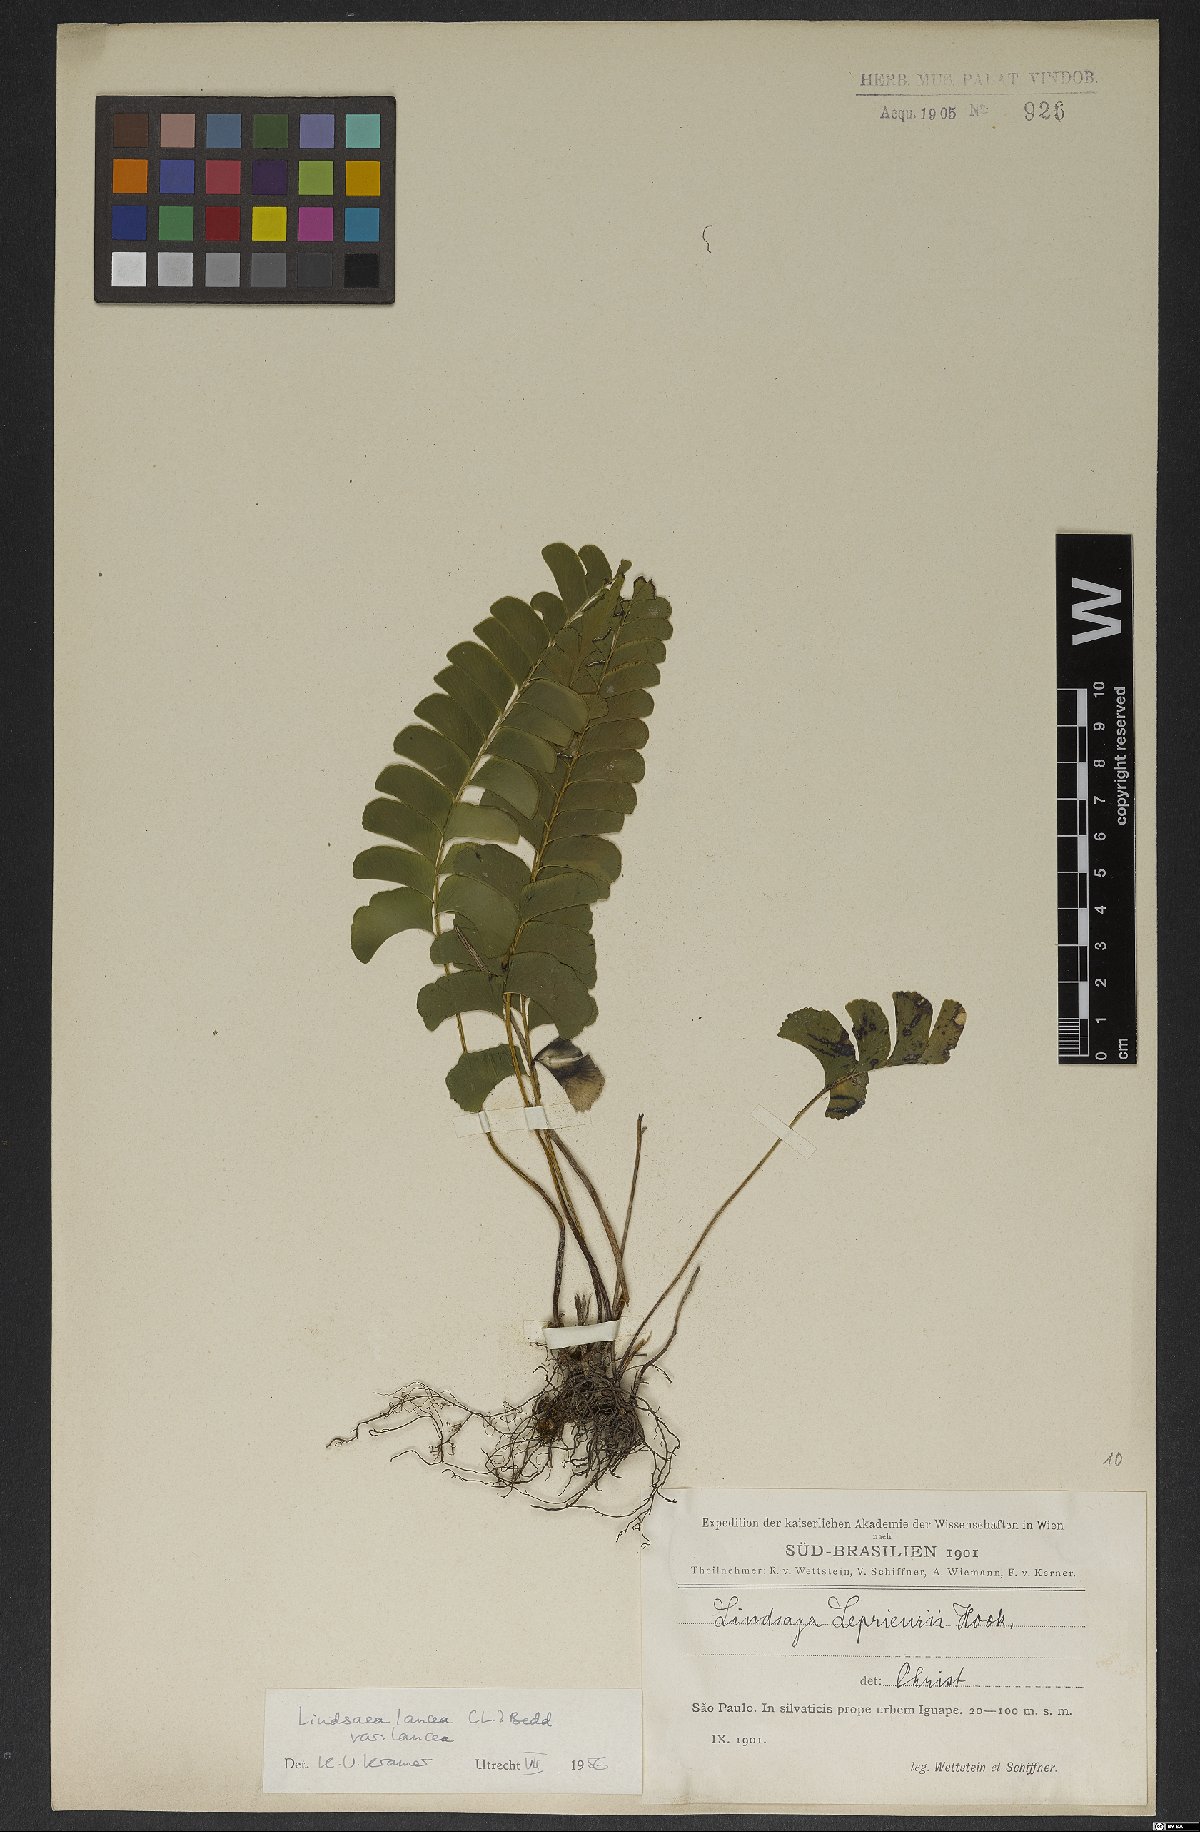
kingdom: Plantae
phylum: Tracheophyta
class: Polypodiopsida
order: Polypodiales
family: Lindsaeaceae
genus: Lindsaea
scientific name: Lindsaea lancea
